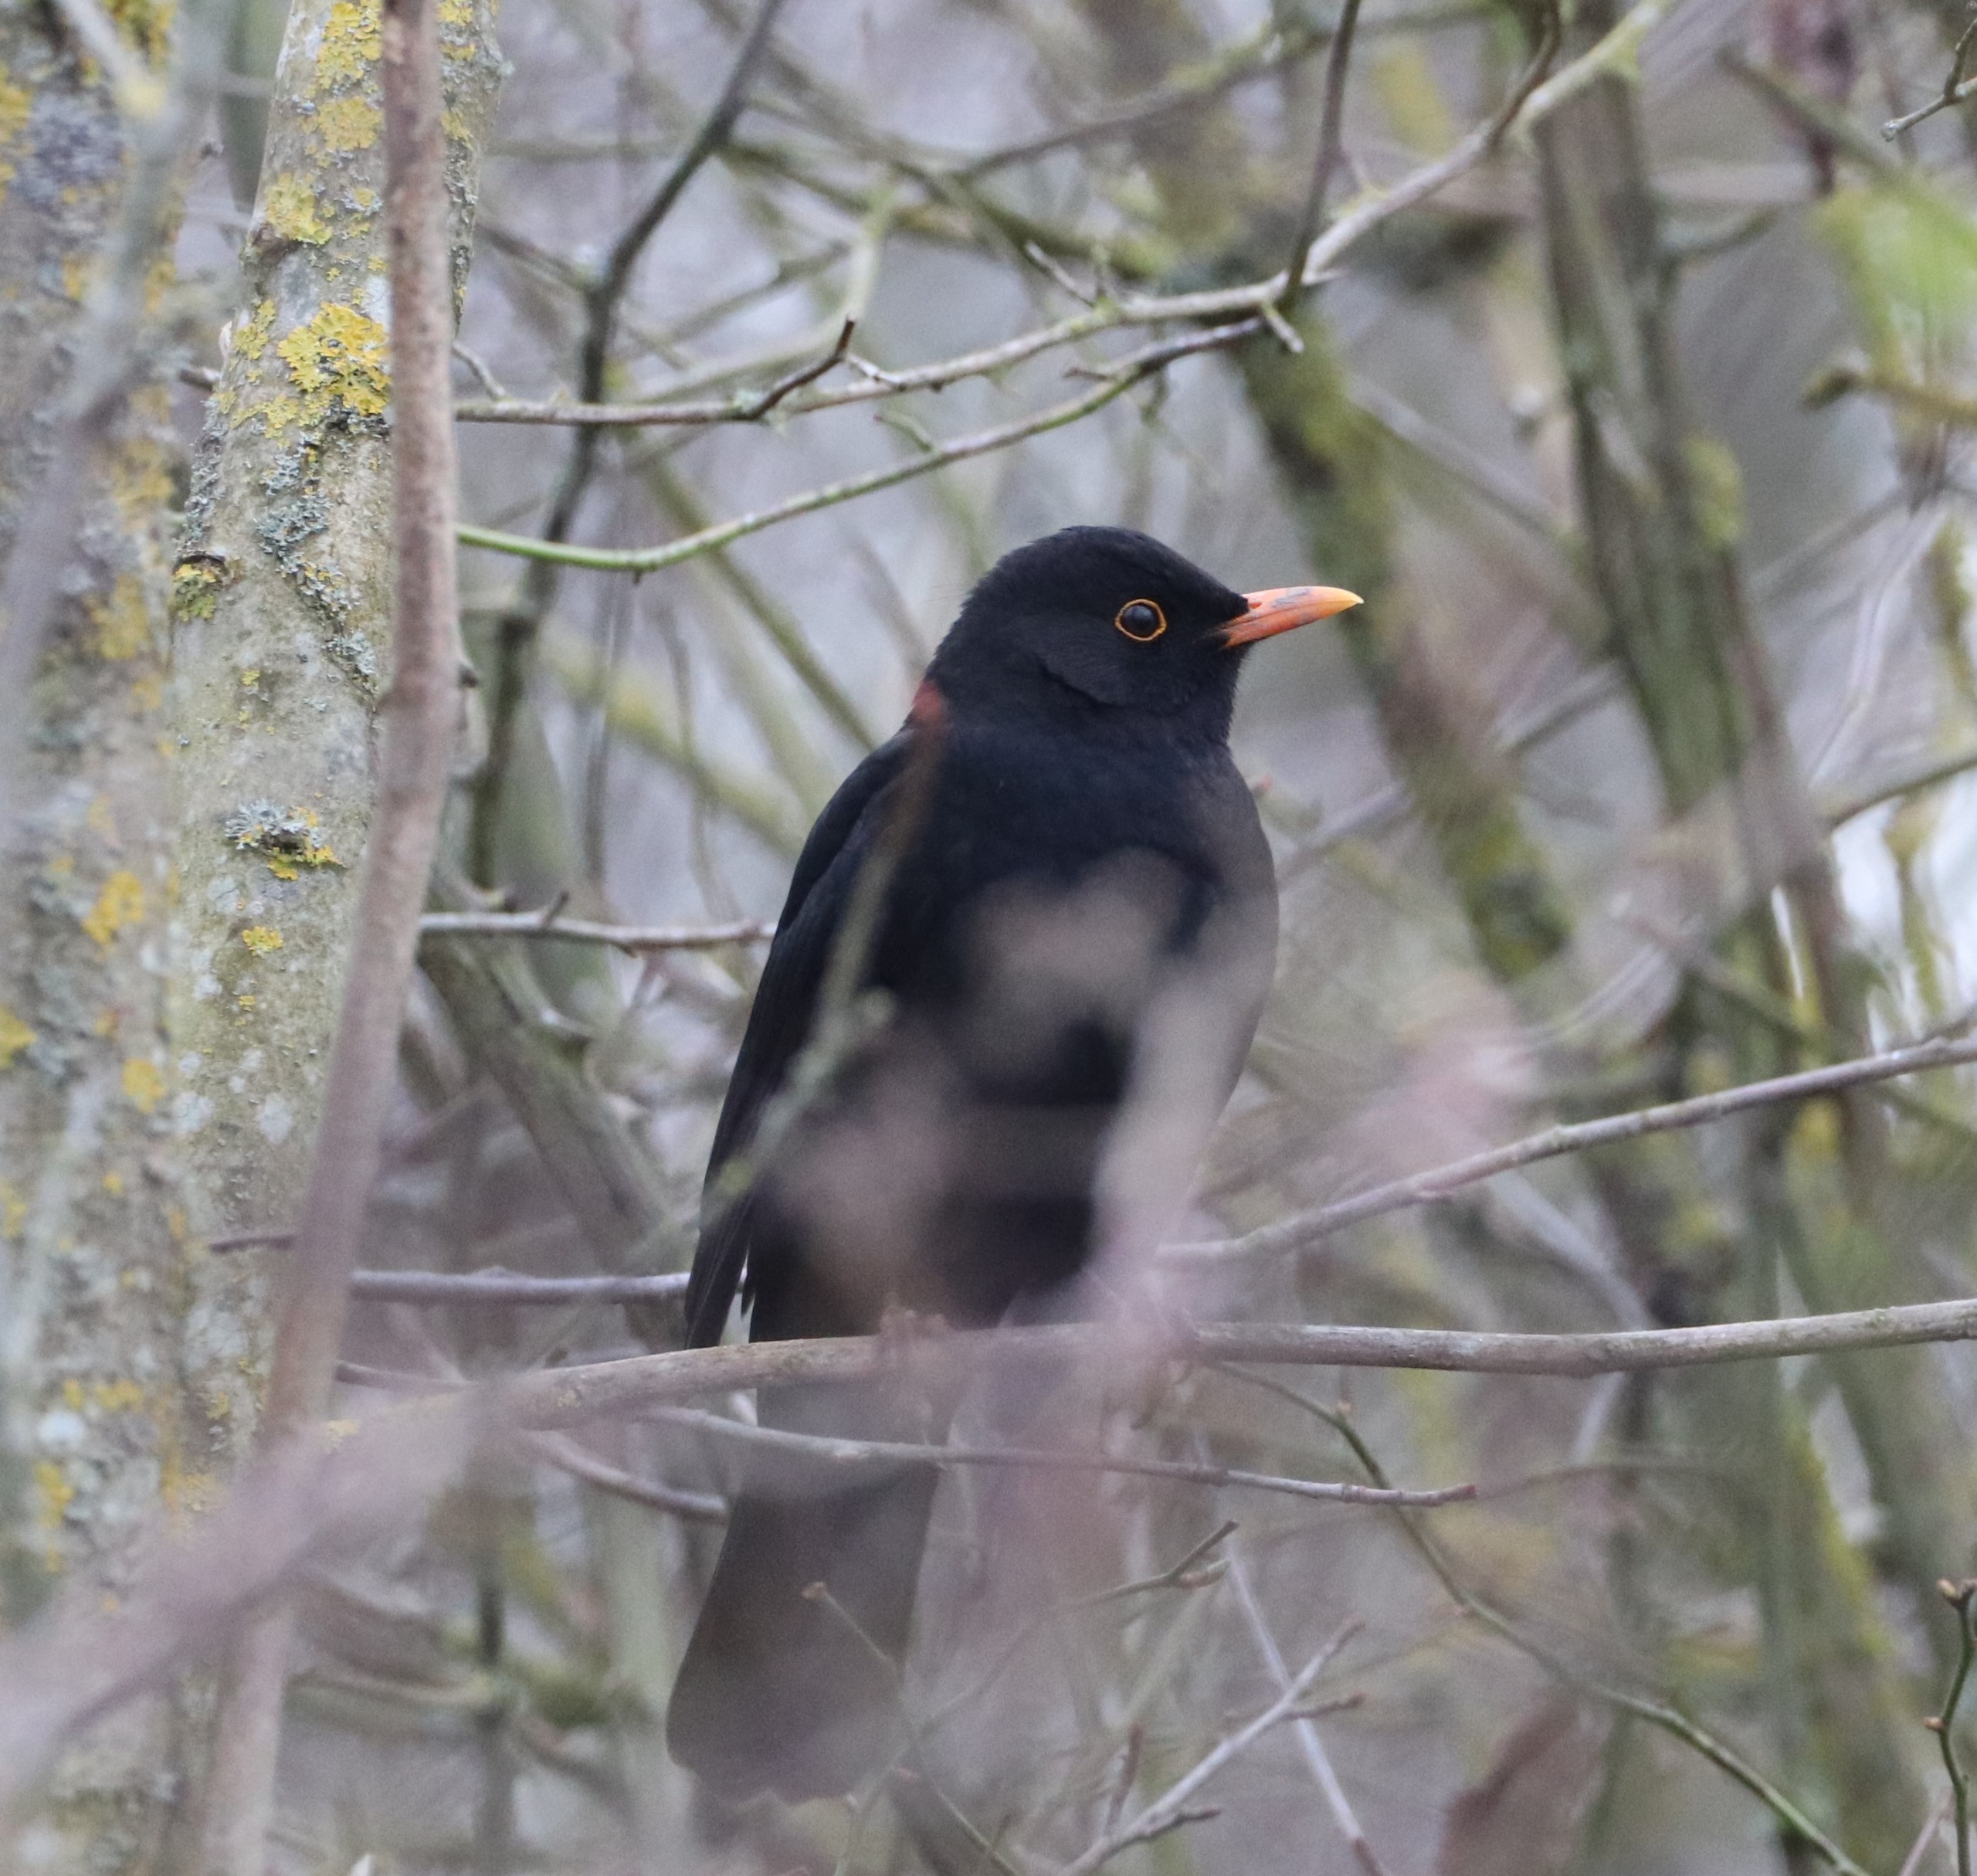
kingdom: Animalia
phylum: Chordata
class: Aves
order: Passeriformes
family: Turdidae
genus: Turdus
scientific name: Turdus merula
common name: Solsort
